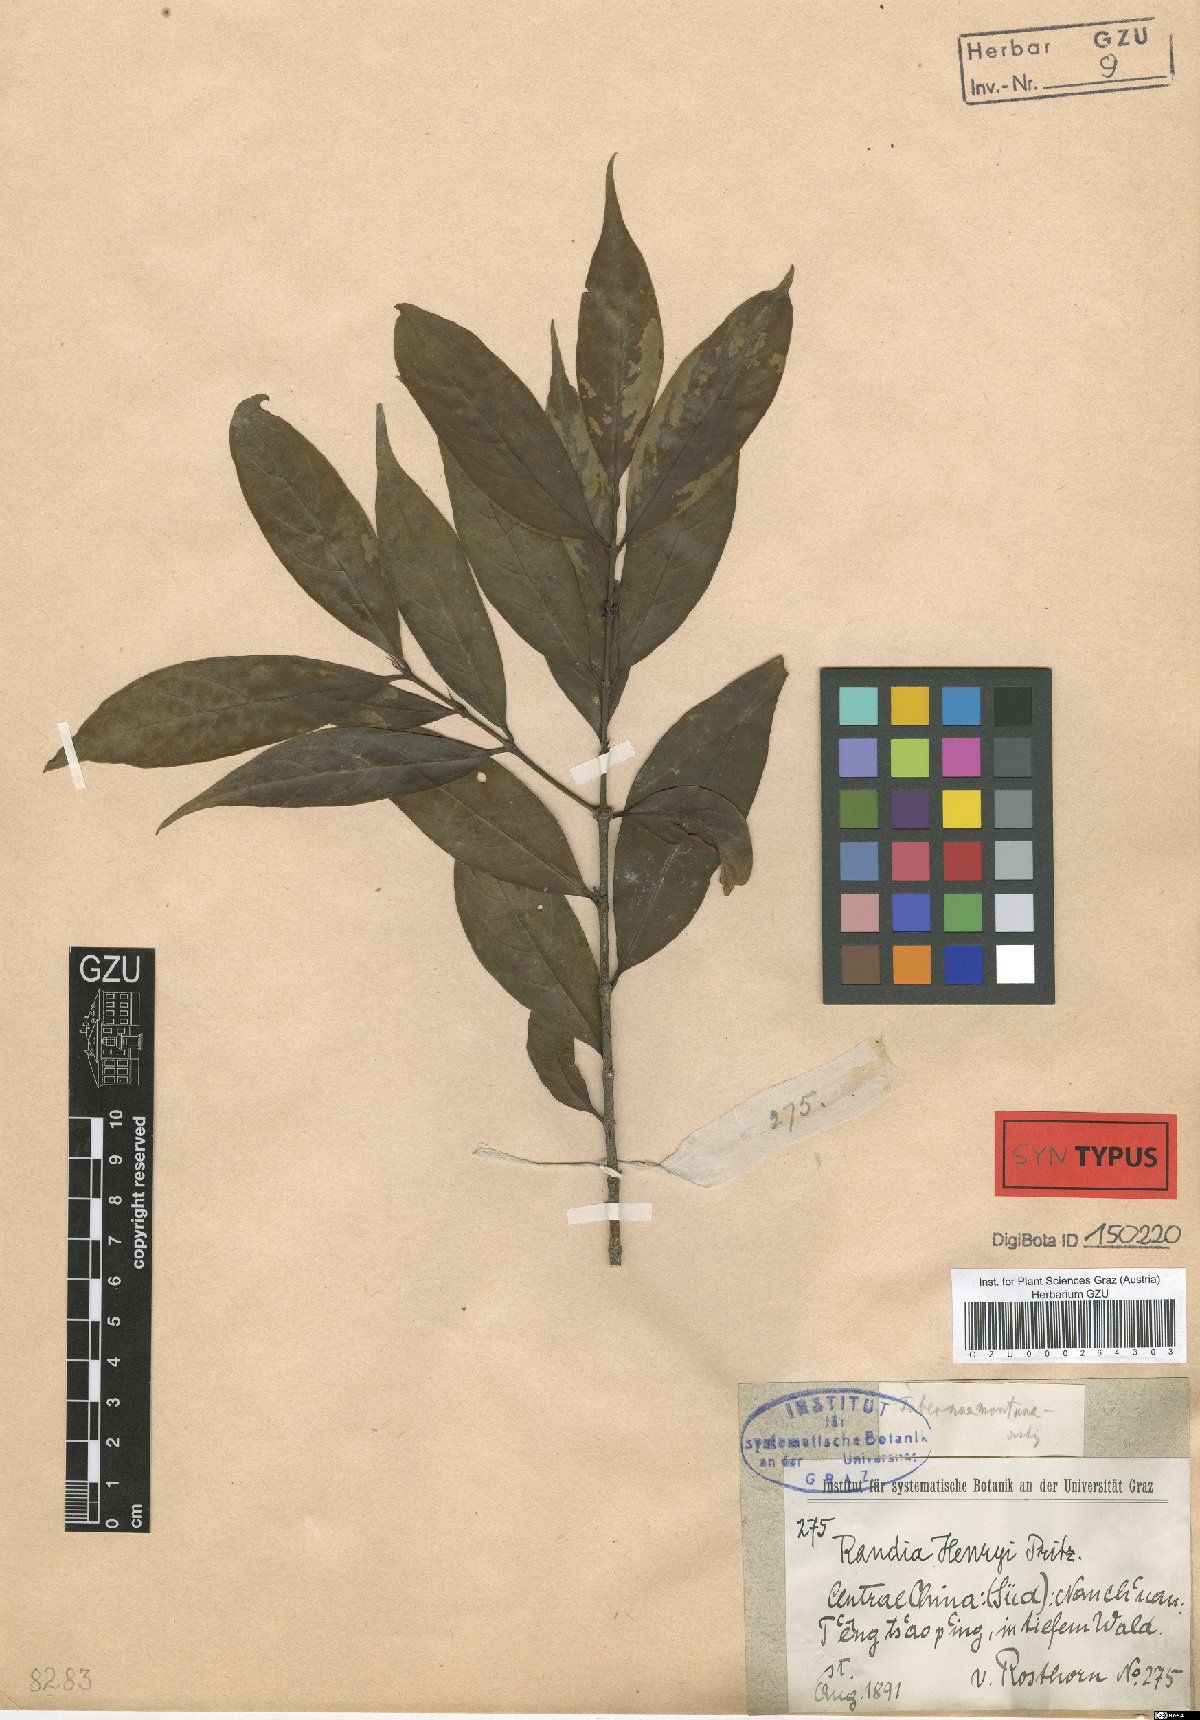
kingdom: Plantae
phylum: Tracheophyta
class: Magnoliopsida
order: Gentianales
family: Rubiaceae
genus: Aidia
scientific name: Aidia henryi
